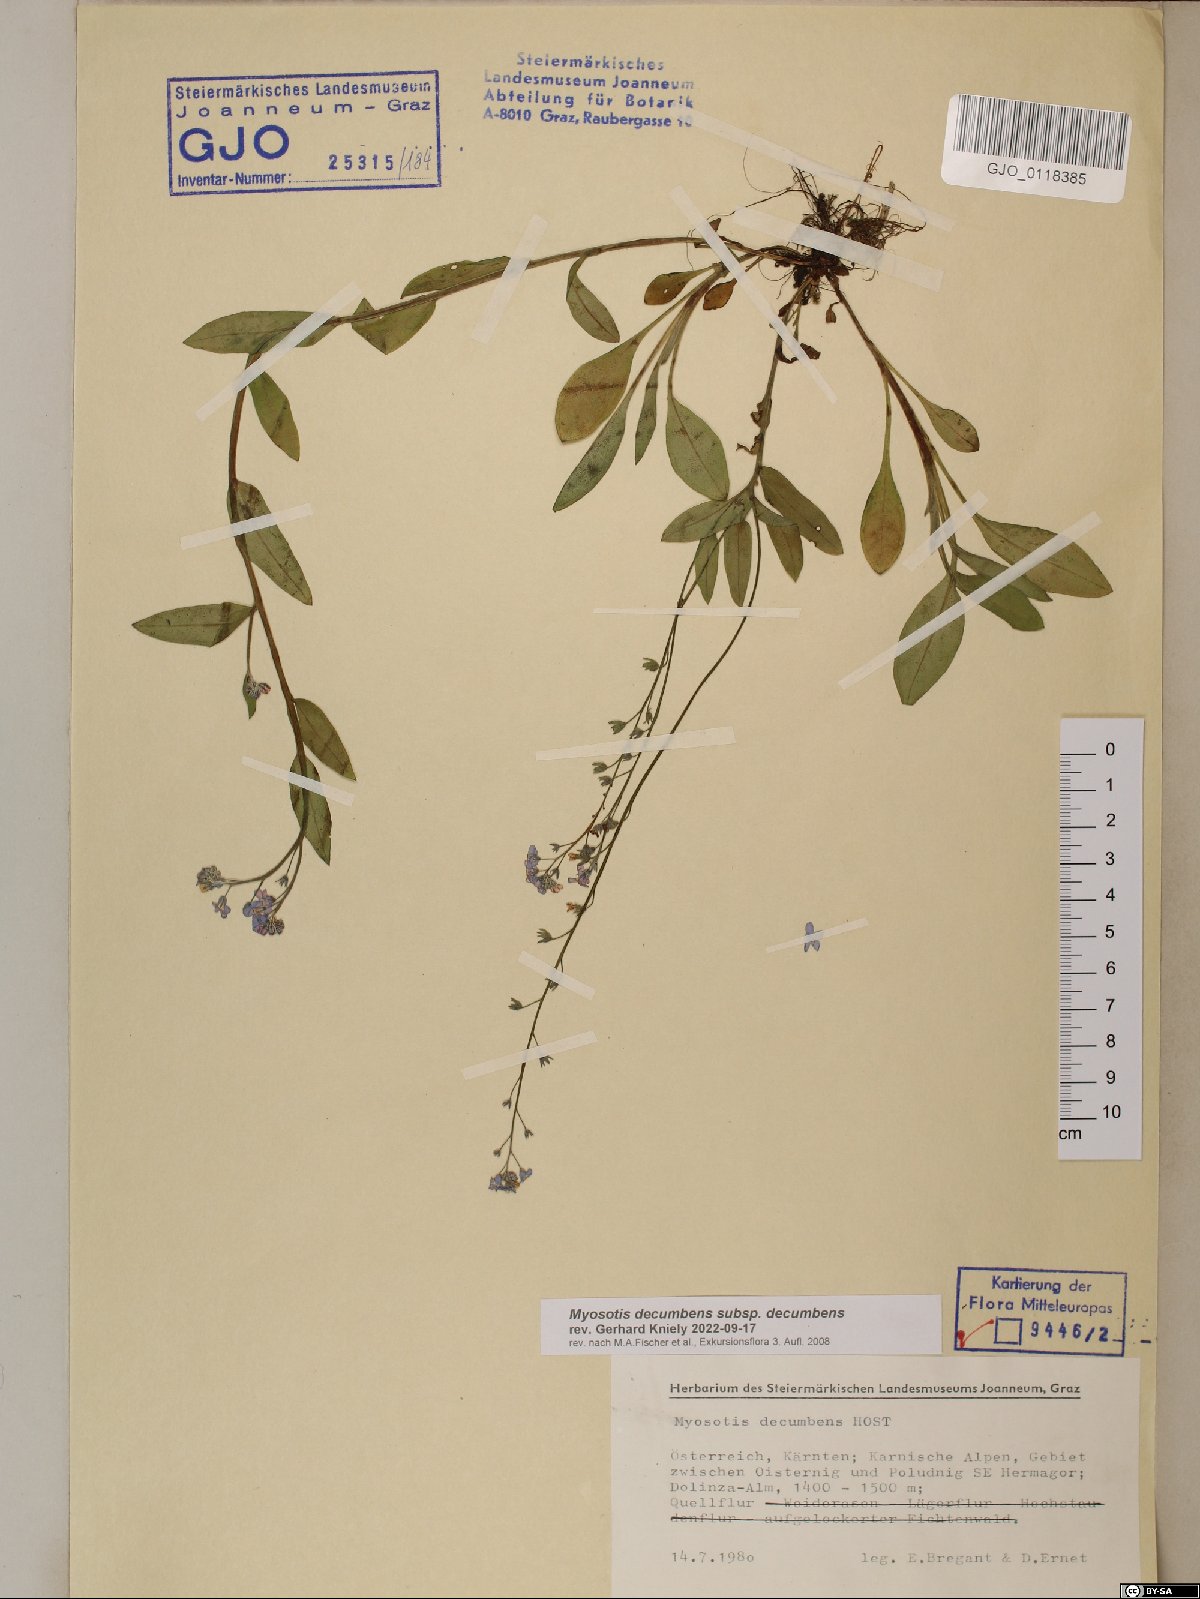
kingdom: Plantae
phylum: Tracheophyta
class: Magnoliopsida
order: Boraginales
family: Boraginaceae
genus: Myosotis
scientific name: Myosotis decumbens
